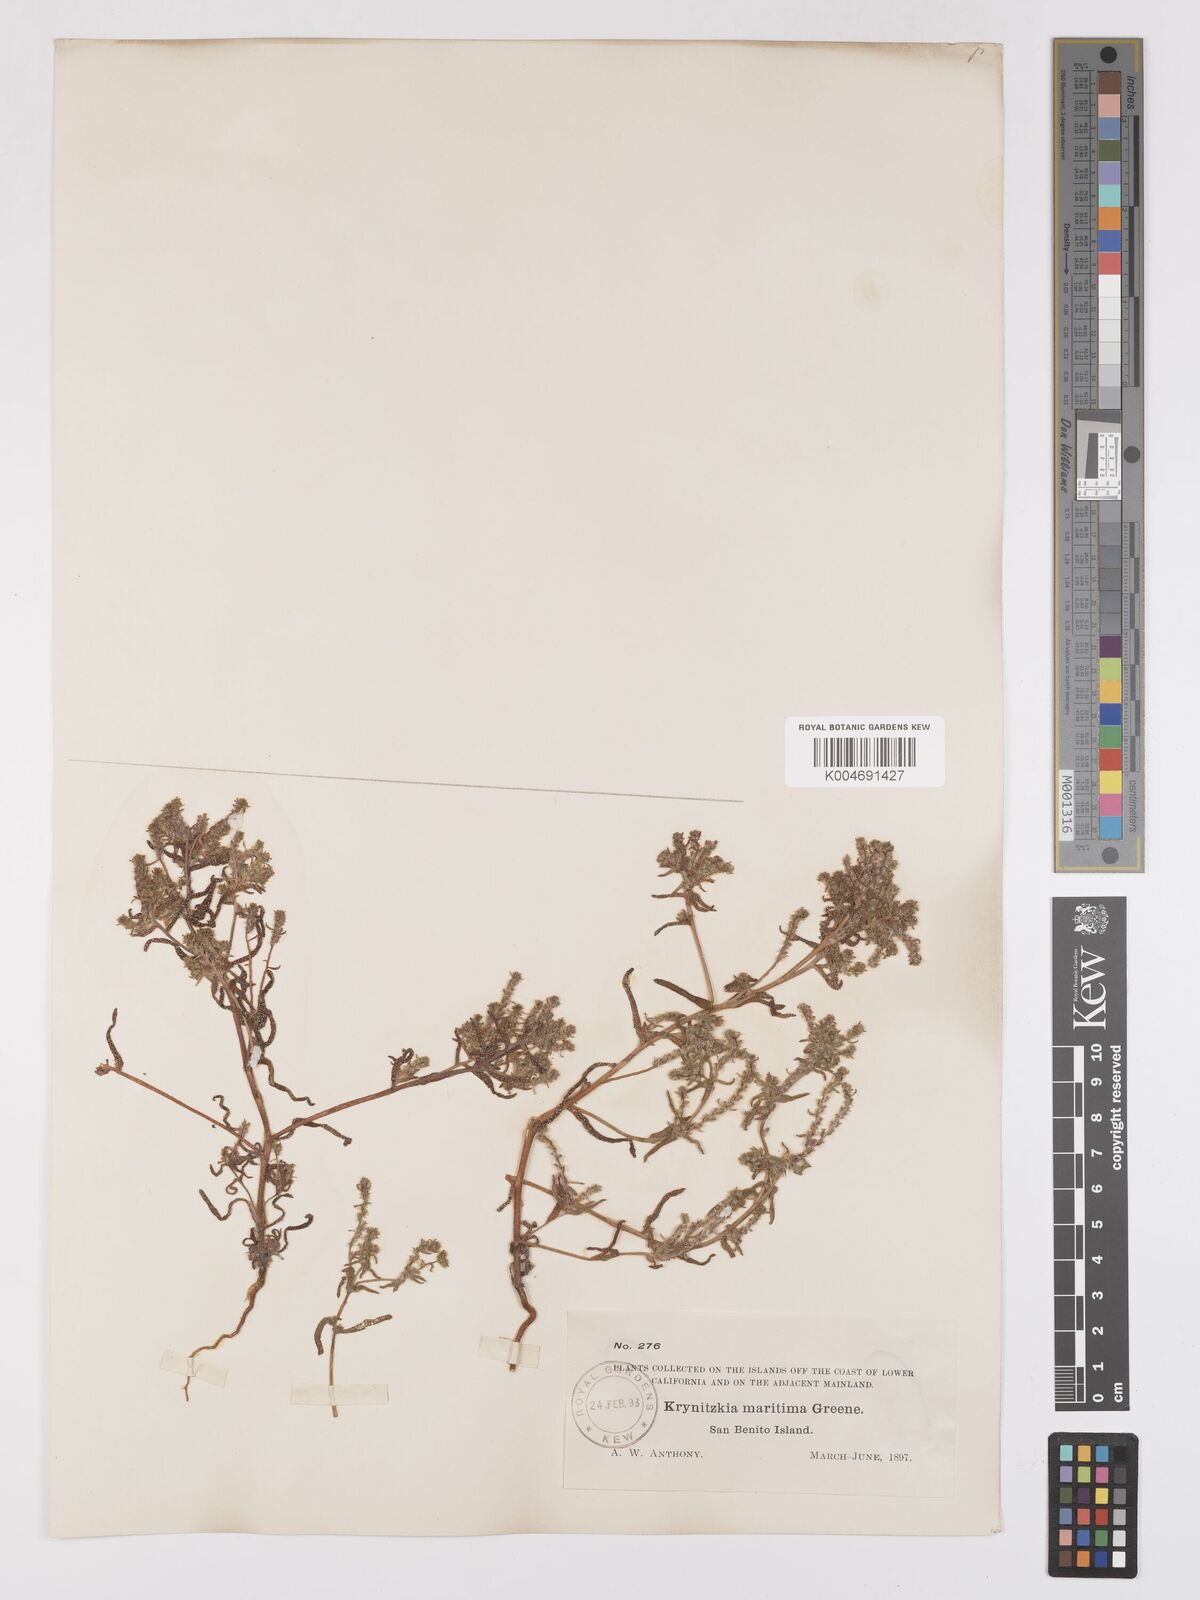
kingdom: Plantae
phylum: Tracheophyta
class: Magnoliopsida
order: Boraginales
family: Boraginaceae
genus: Cryptantha
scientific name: Cryptantha maritima
